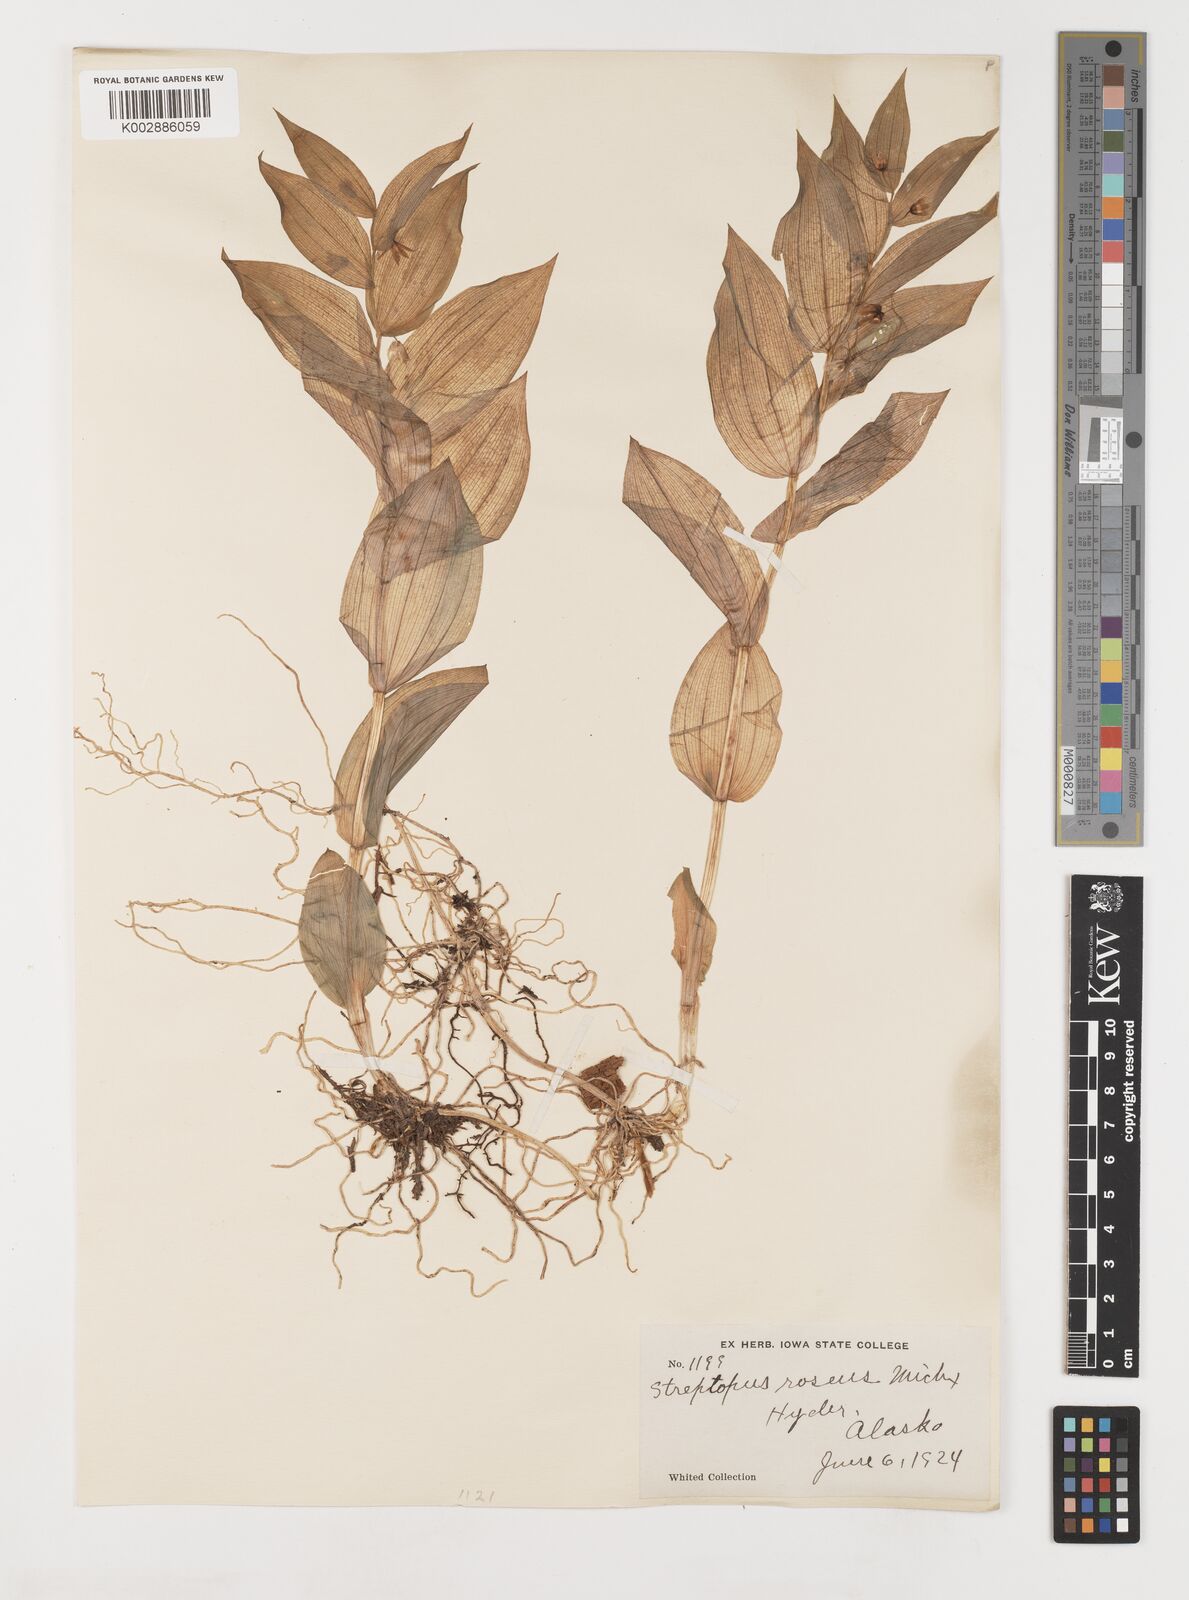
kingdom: Plantae
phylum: Tracheophyta
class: Liliopsida
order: Liliales
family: Liliaceae
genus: Streptopus
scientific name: Streptopus lanceolatus
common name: Rose mandarin
